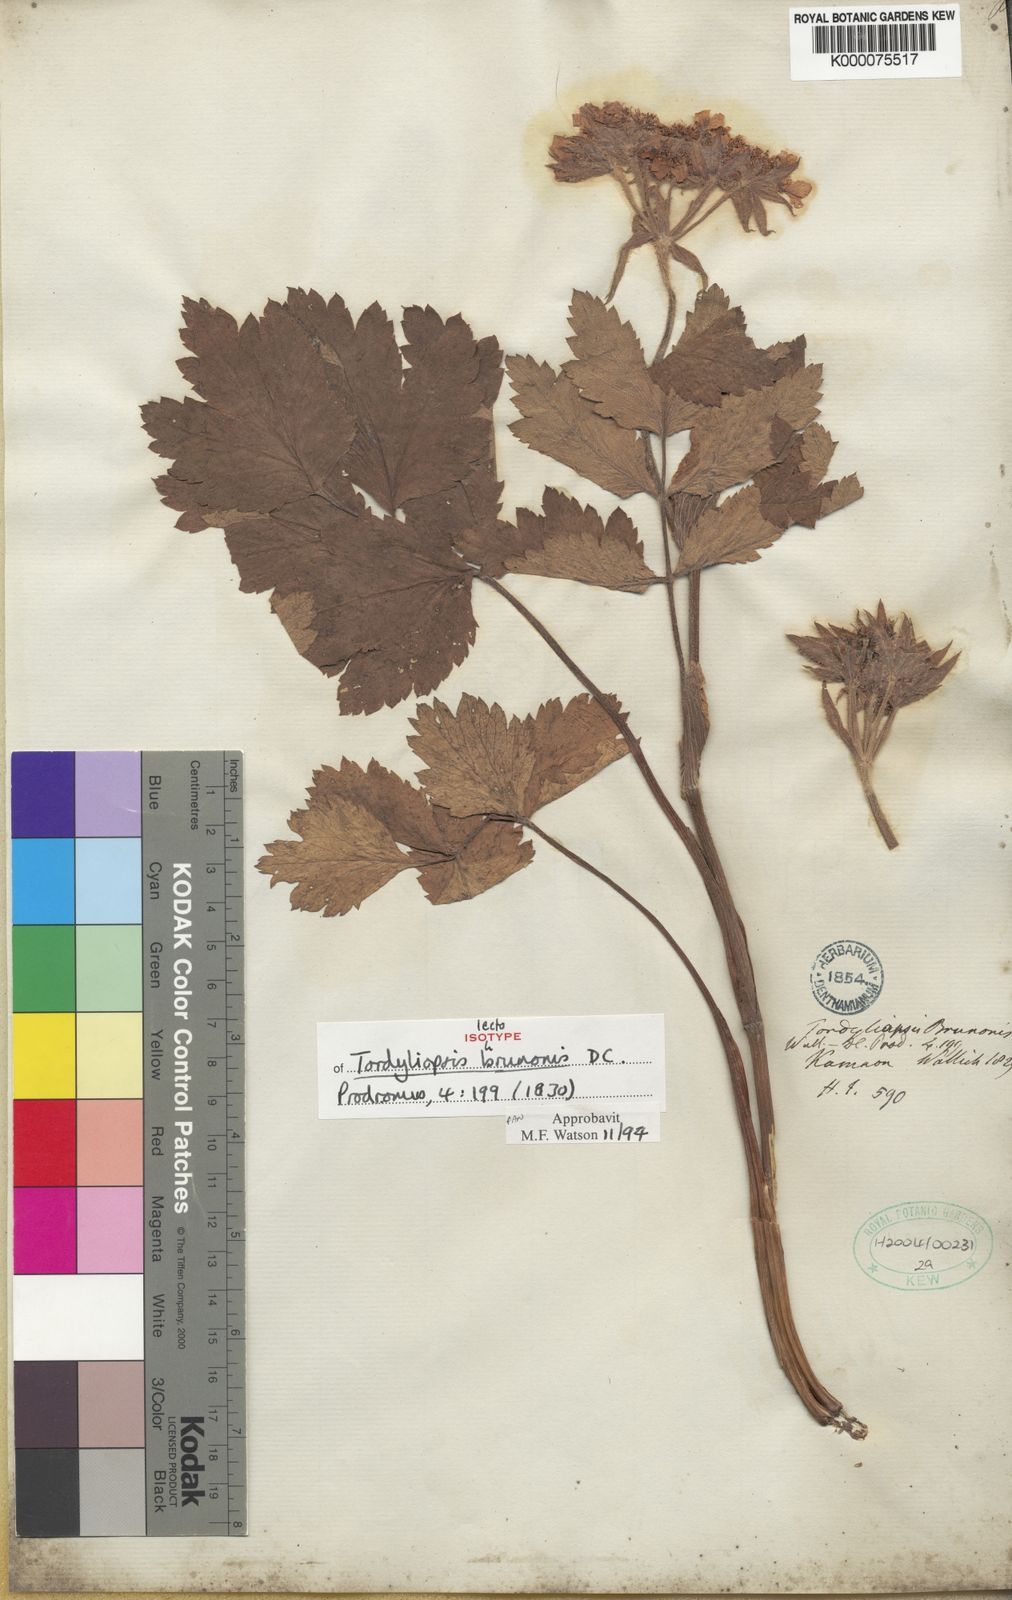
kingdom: Plantae
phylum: Tracheophyta
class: Magnoliopsida
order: Apiales
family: Apiaceae
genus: Tordyliopsis
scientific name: Tordyliopsis brunonis
